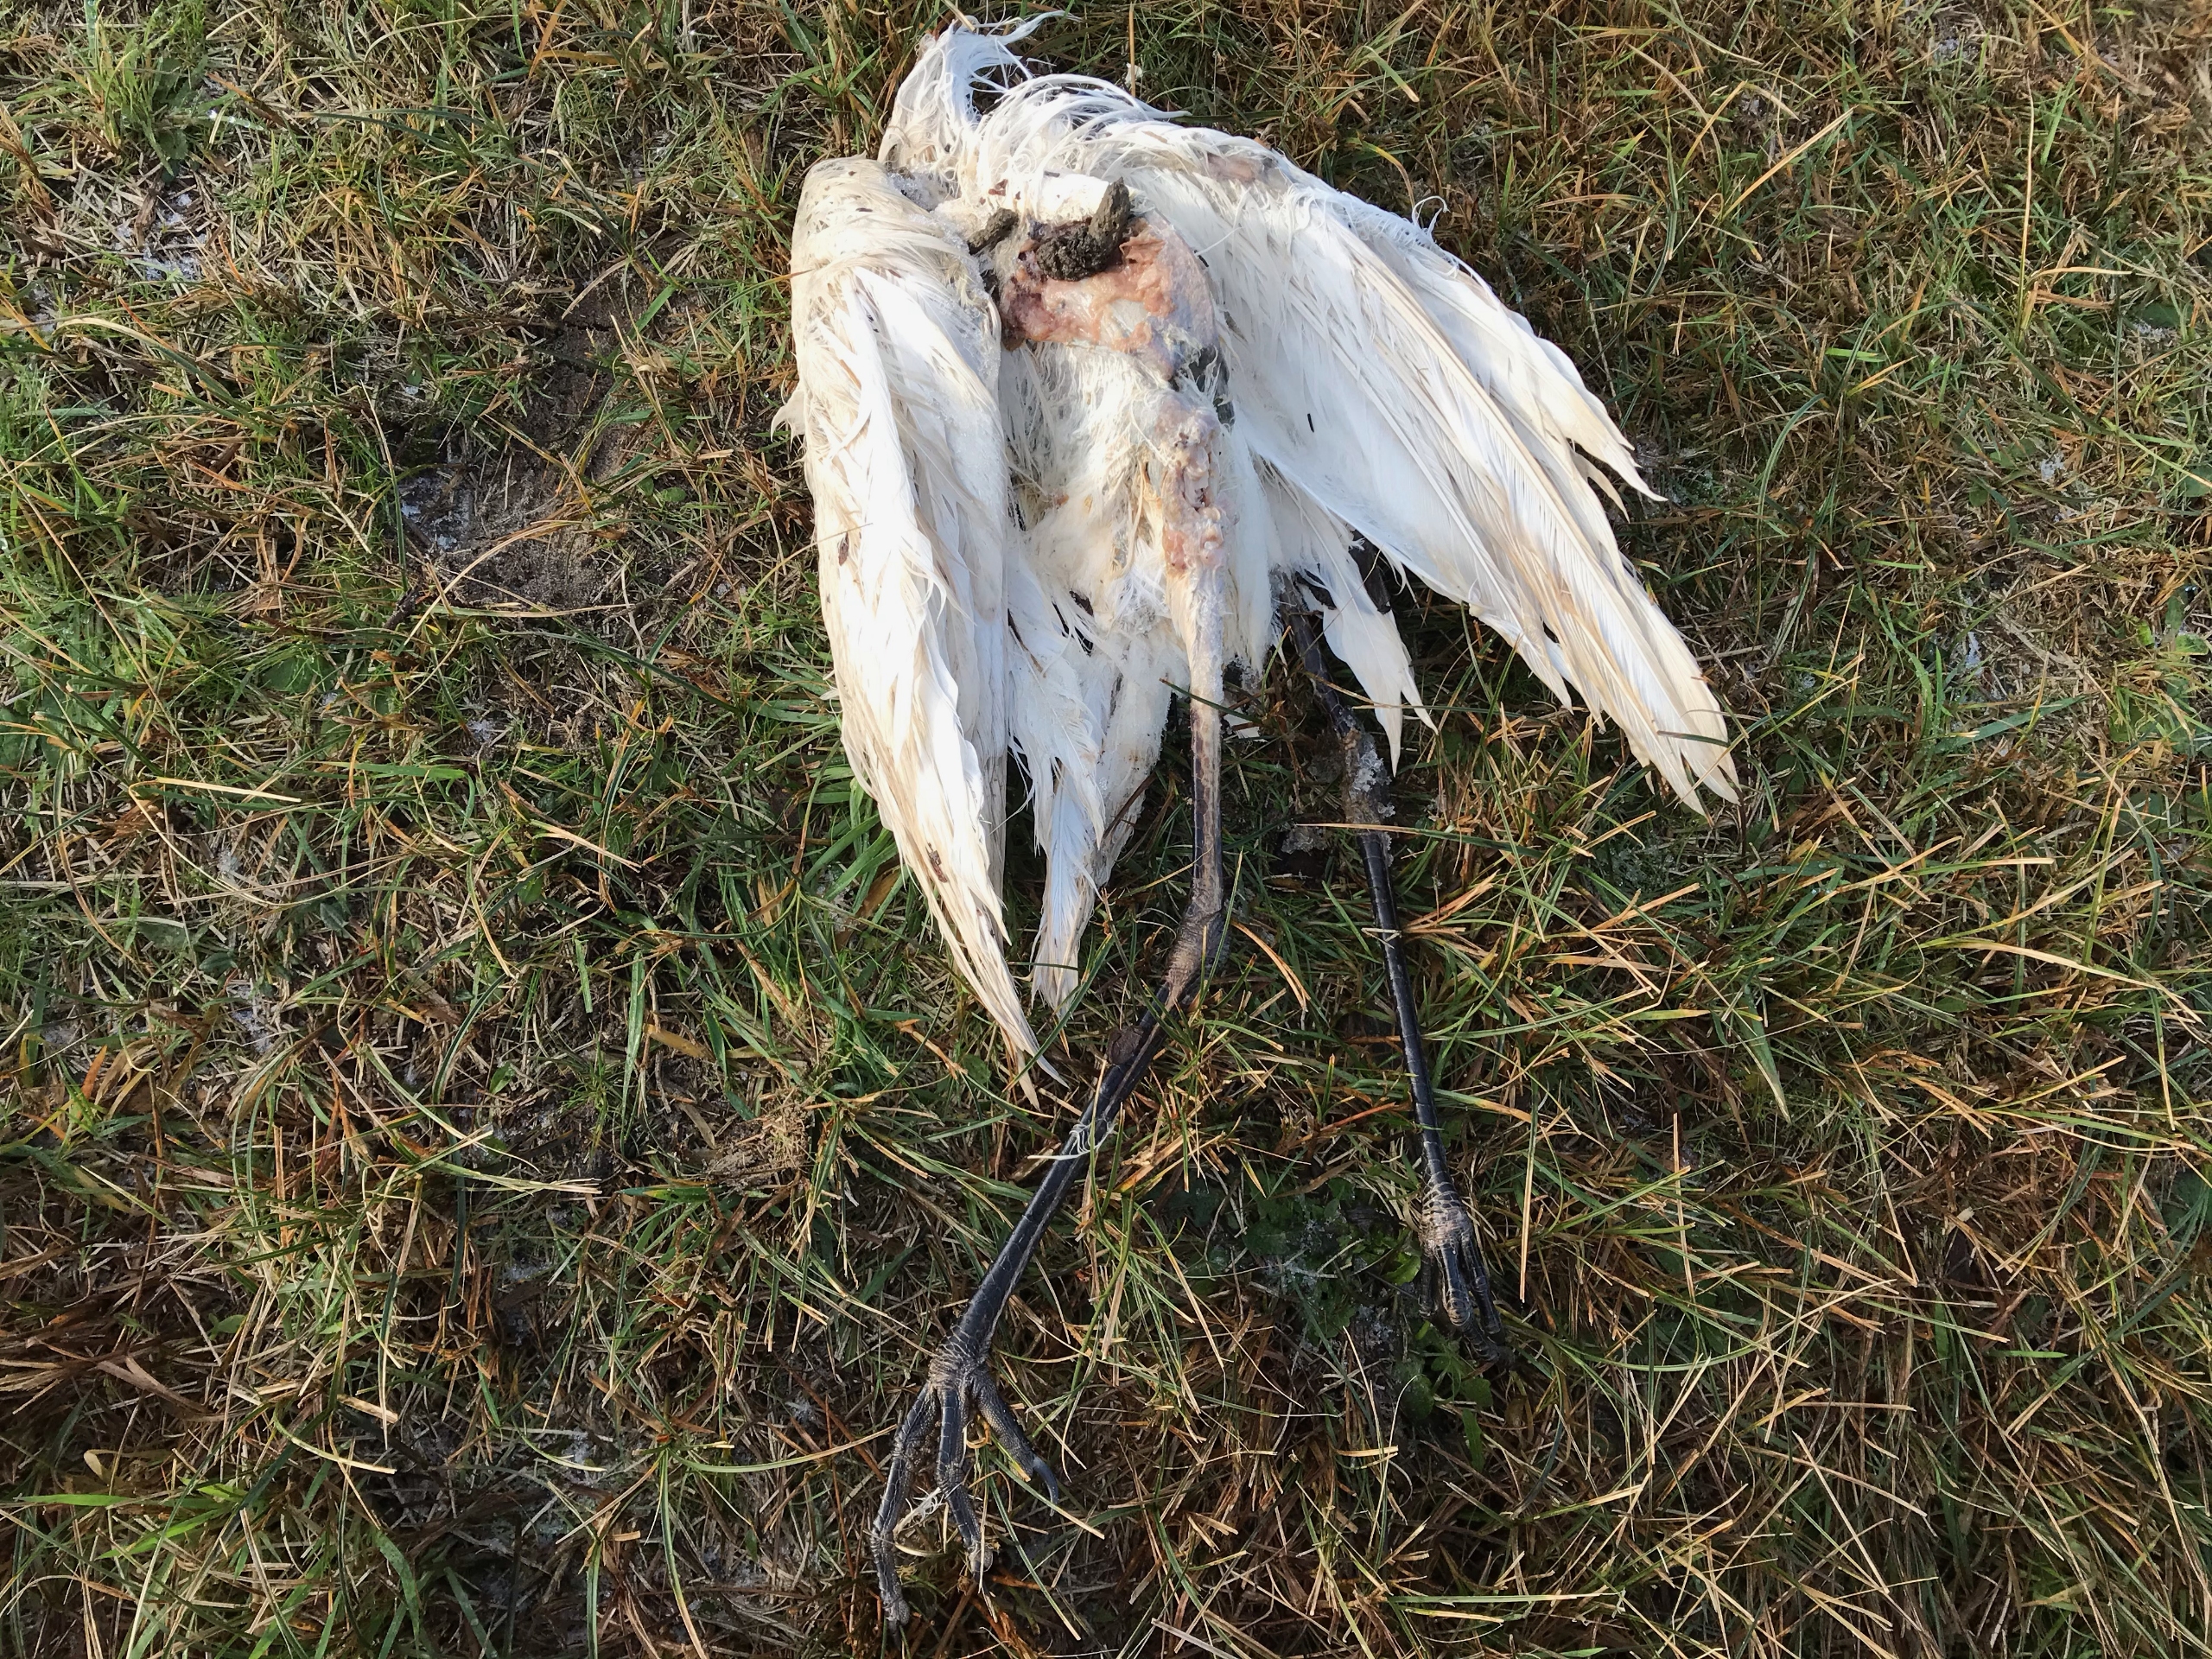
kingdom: Animalia
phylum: Chordata
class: Aves
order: Pelecaniformes
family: Ardeidae
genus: Ardea
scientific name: Ardea alba
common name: Sølvhejre
